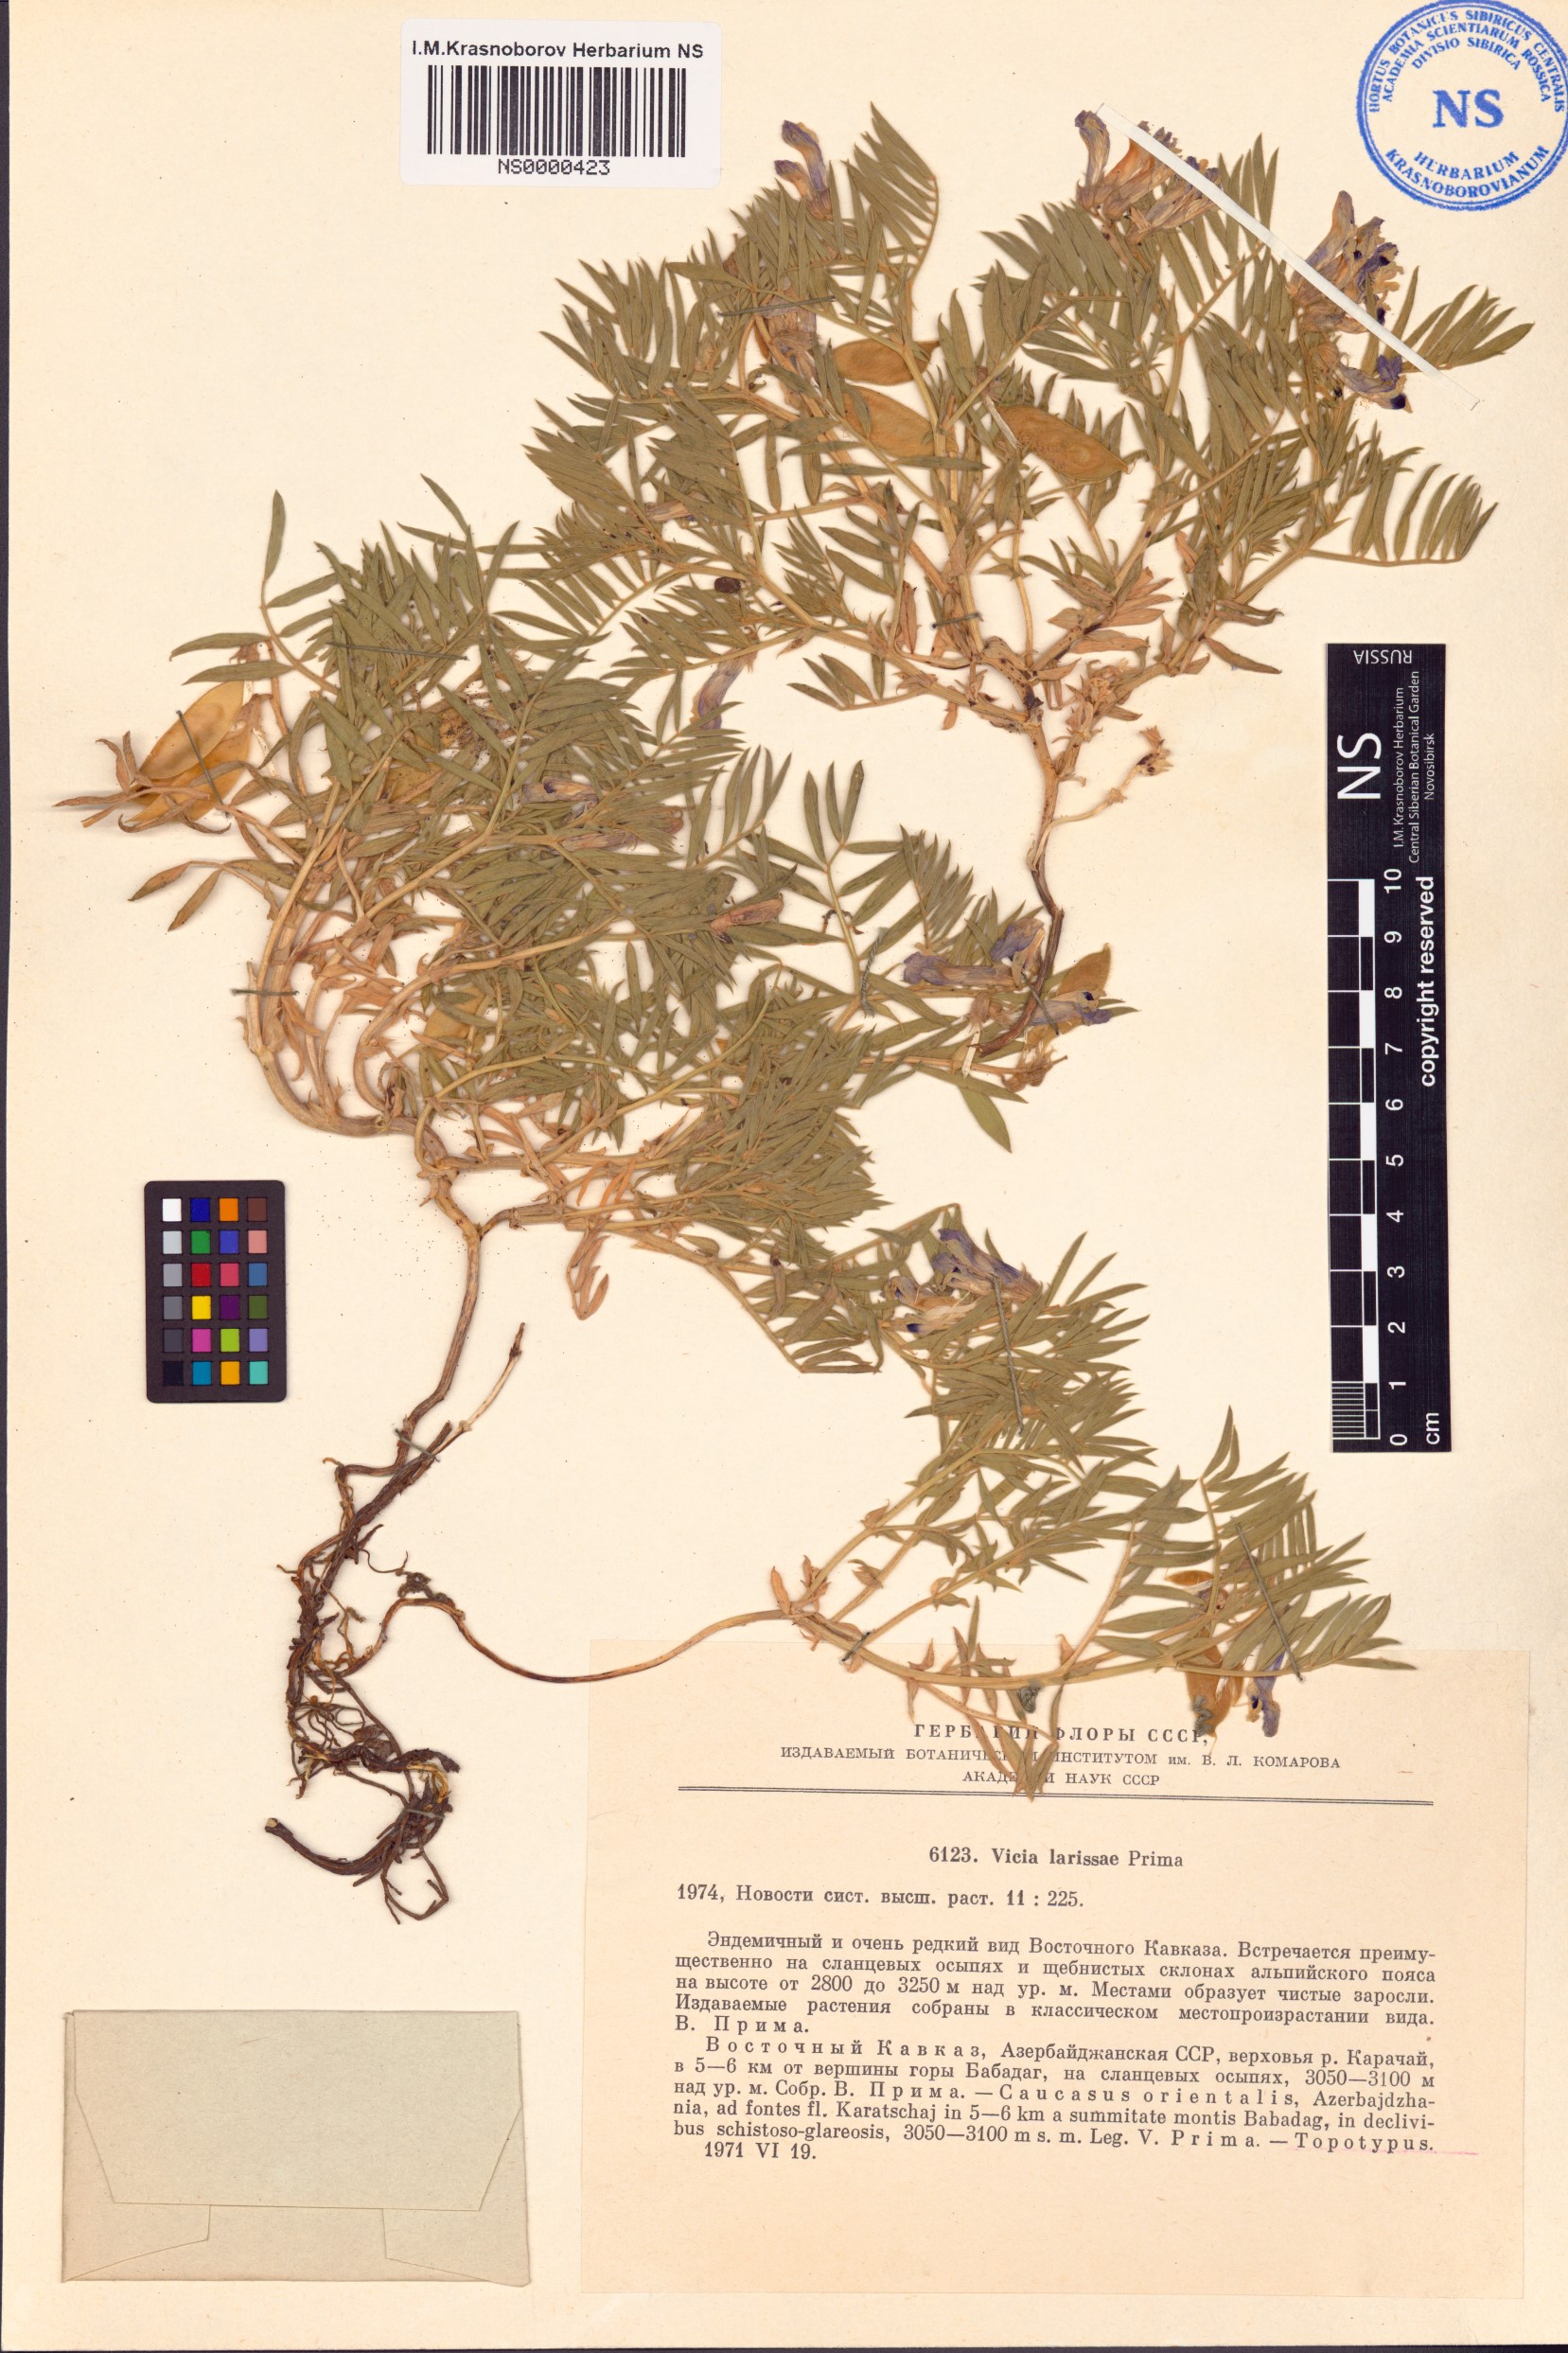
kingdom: Plantae
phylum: Tracheophyta
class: Magnoliopsida
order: Fabales
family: Fabaceae
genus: Vicia
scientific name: Vicia larissae
